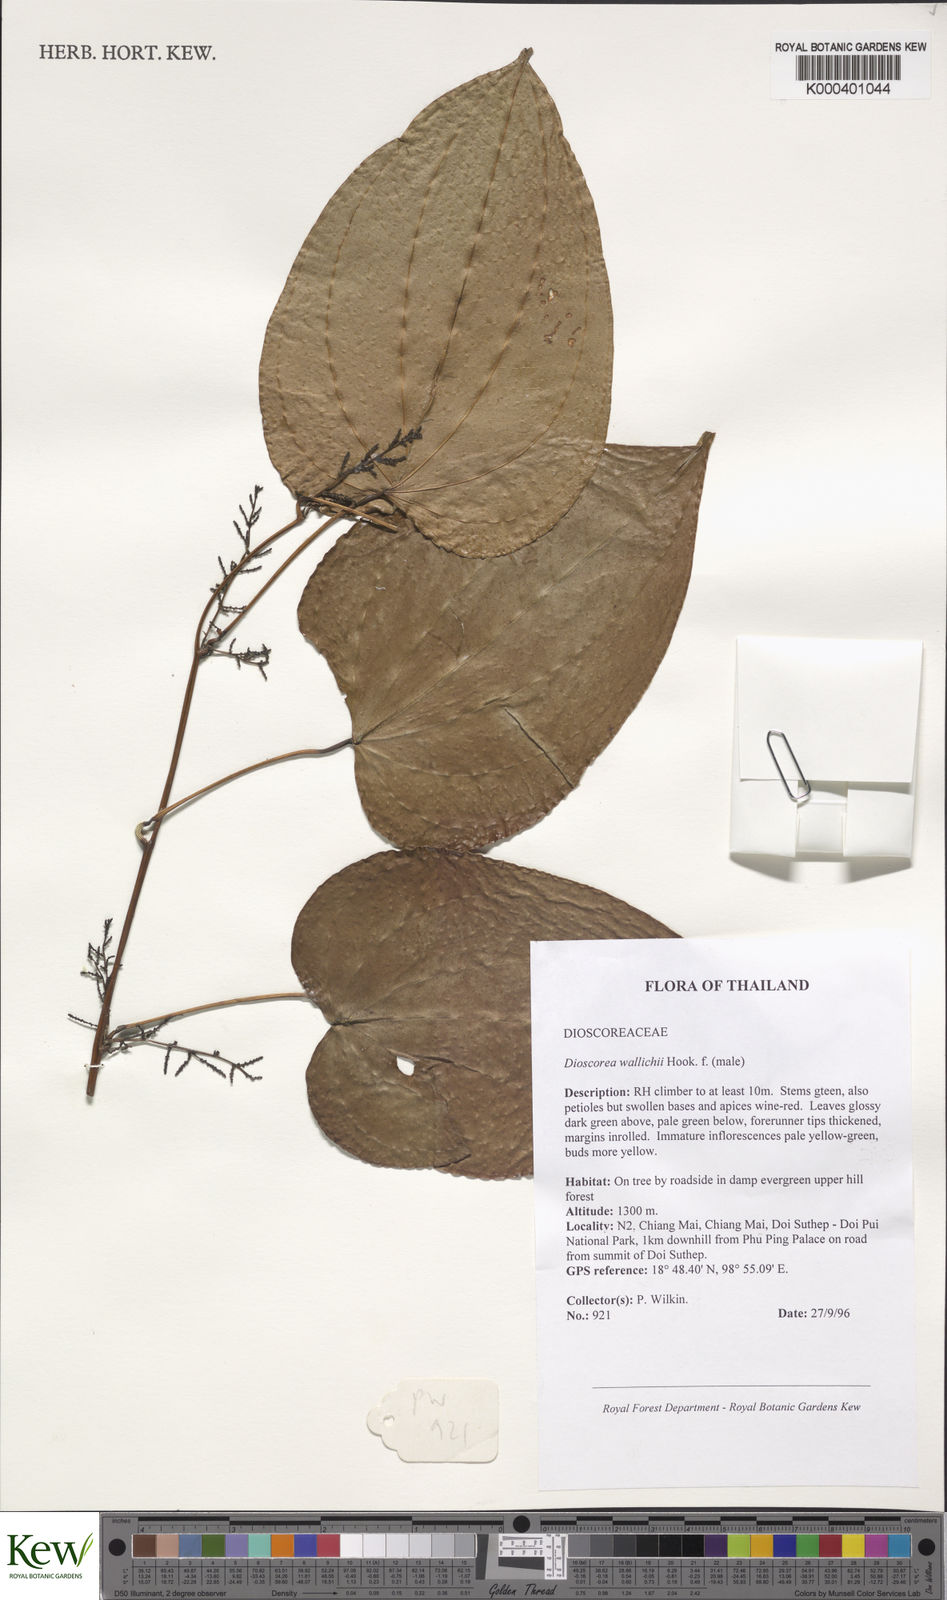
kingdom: Plantae
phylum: Tracheophyta
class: Liliopsida
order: Dioscoreales
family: Dioscoreaceae
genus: Dioscorea
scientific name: Dioscorea wallichii
